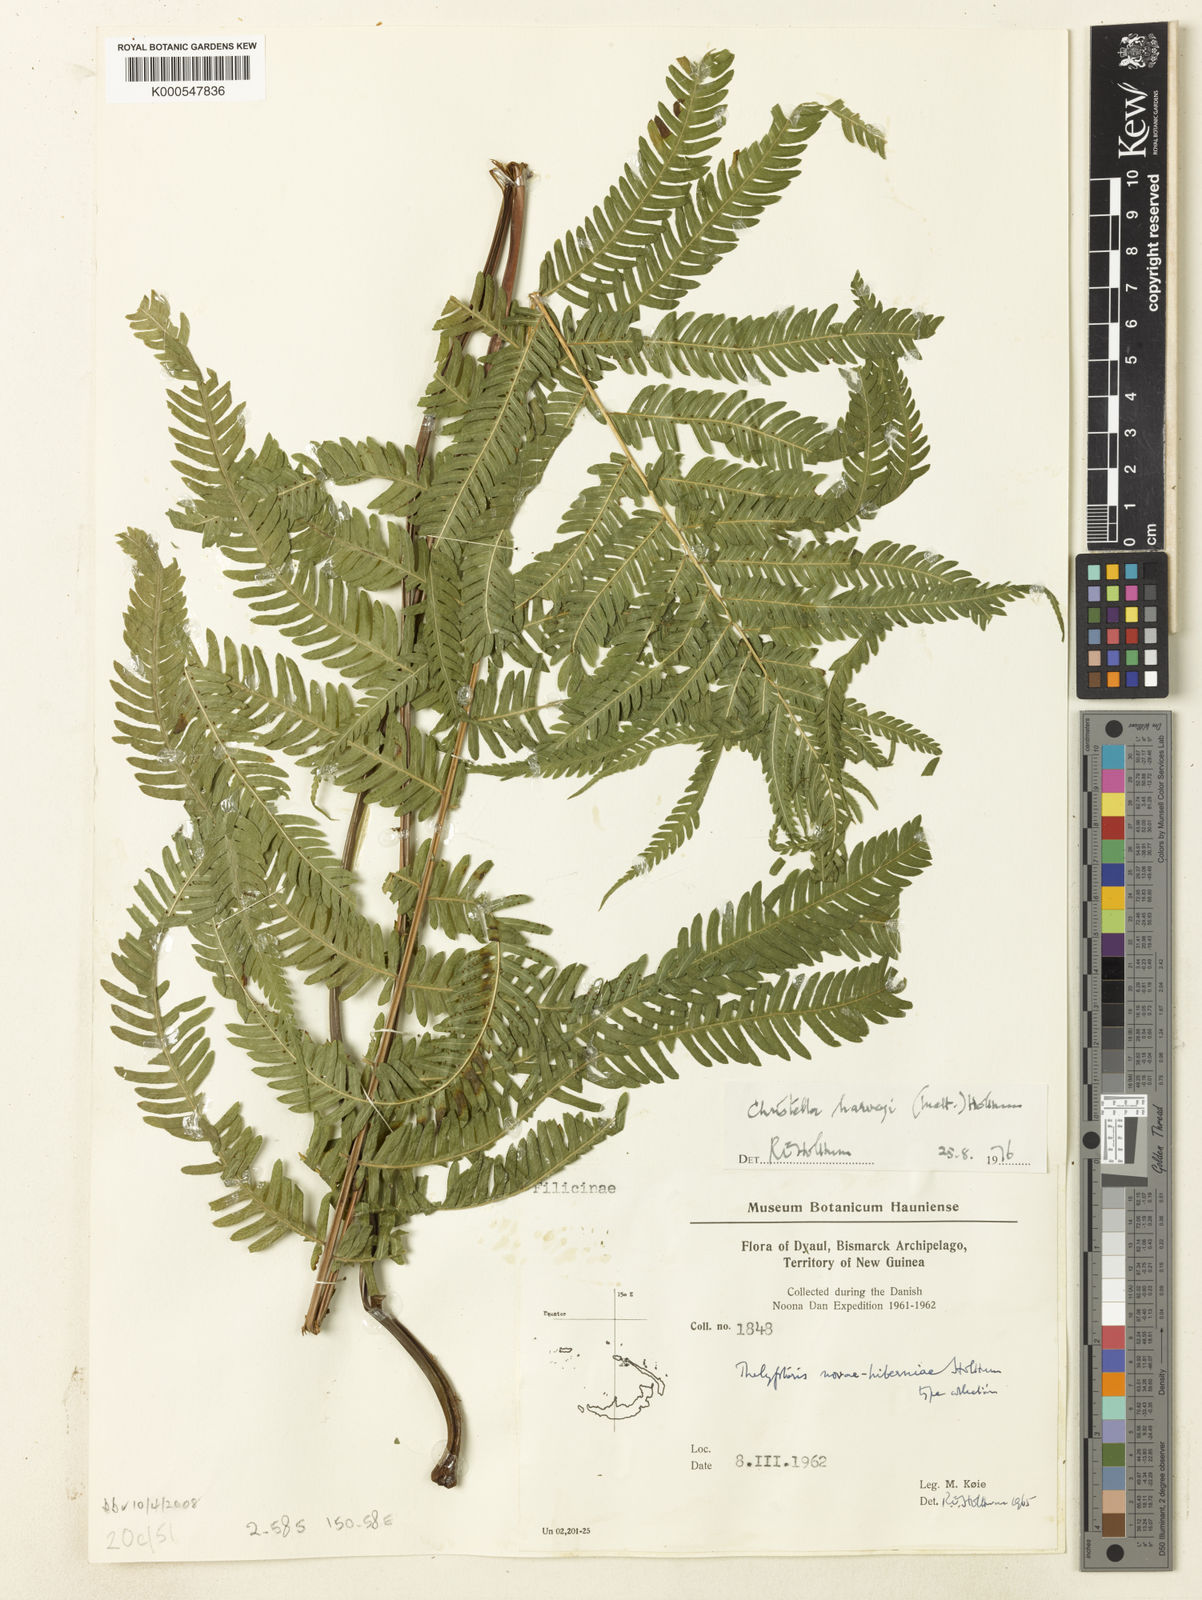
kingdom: Plantae
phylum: Tracheophyta
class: Polypodiopsida
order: Polypodiales
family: Thelypteridaceae
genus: Christella
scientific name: Christella harveyi
